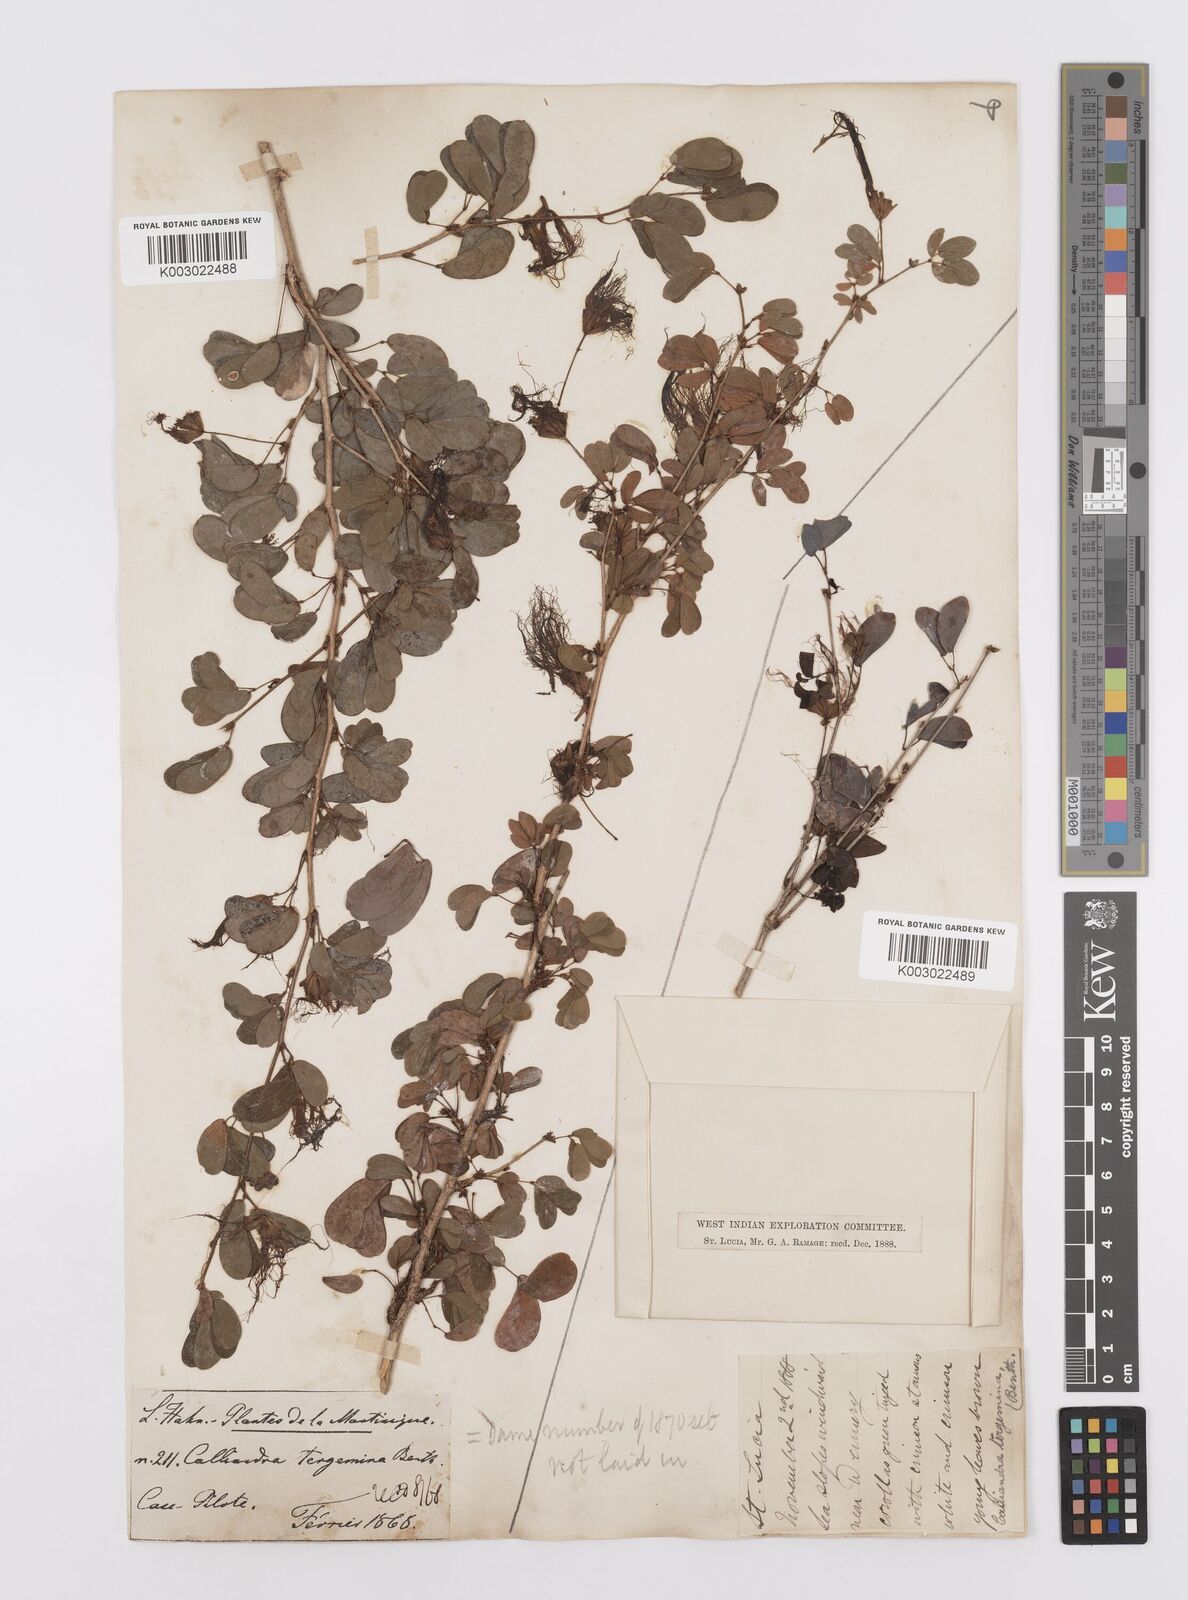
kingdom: Plantae
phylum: Tracheophyta
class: Magnoliopsida
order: Fabales
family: Fabaceae
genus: Calliandra
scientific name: Calliandra tergemina
